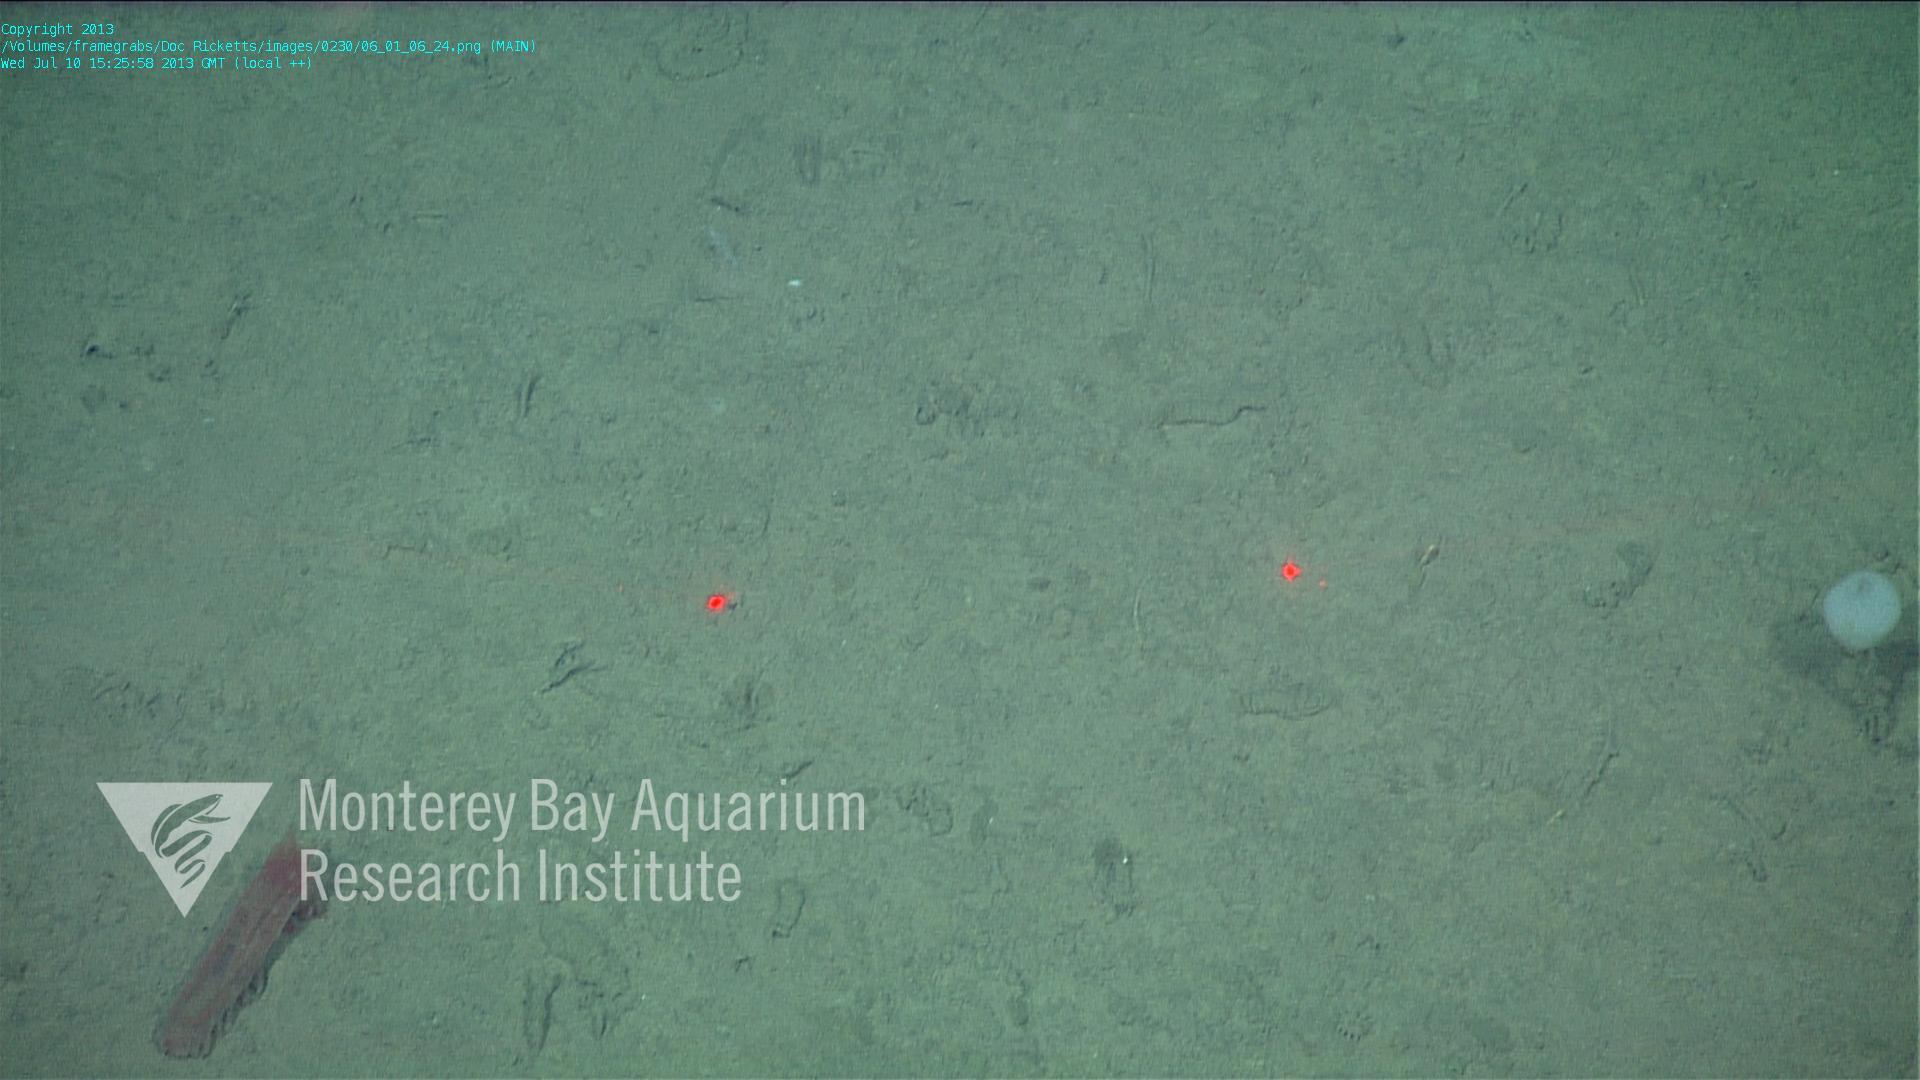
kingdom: Animalia
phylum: Porifera
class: Hexactinellida
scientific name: Hexactinellida
